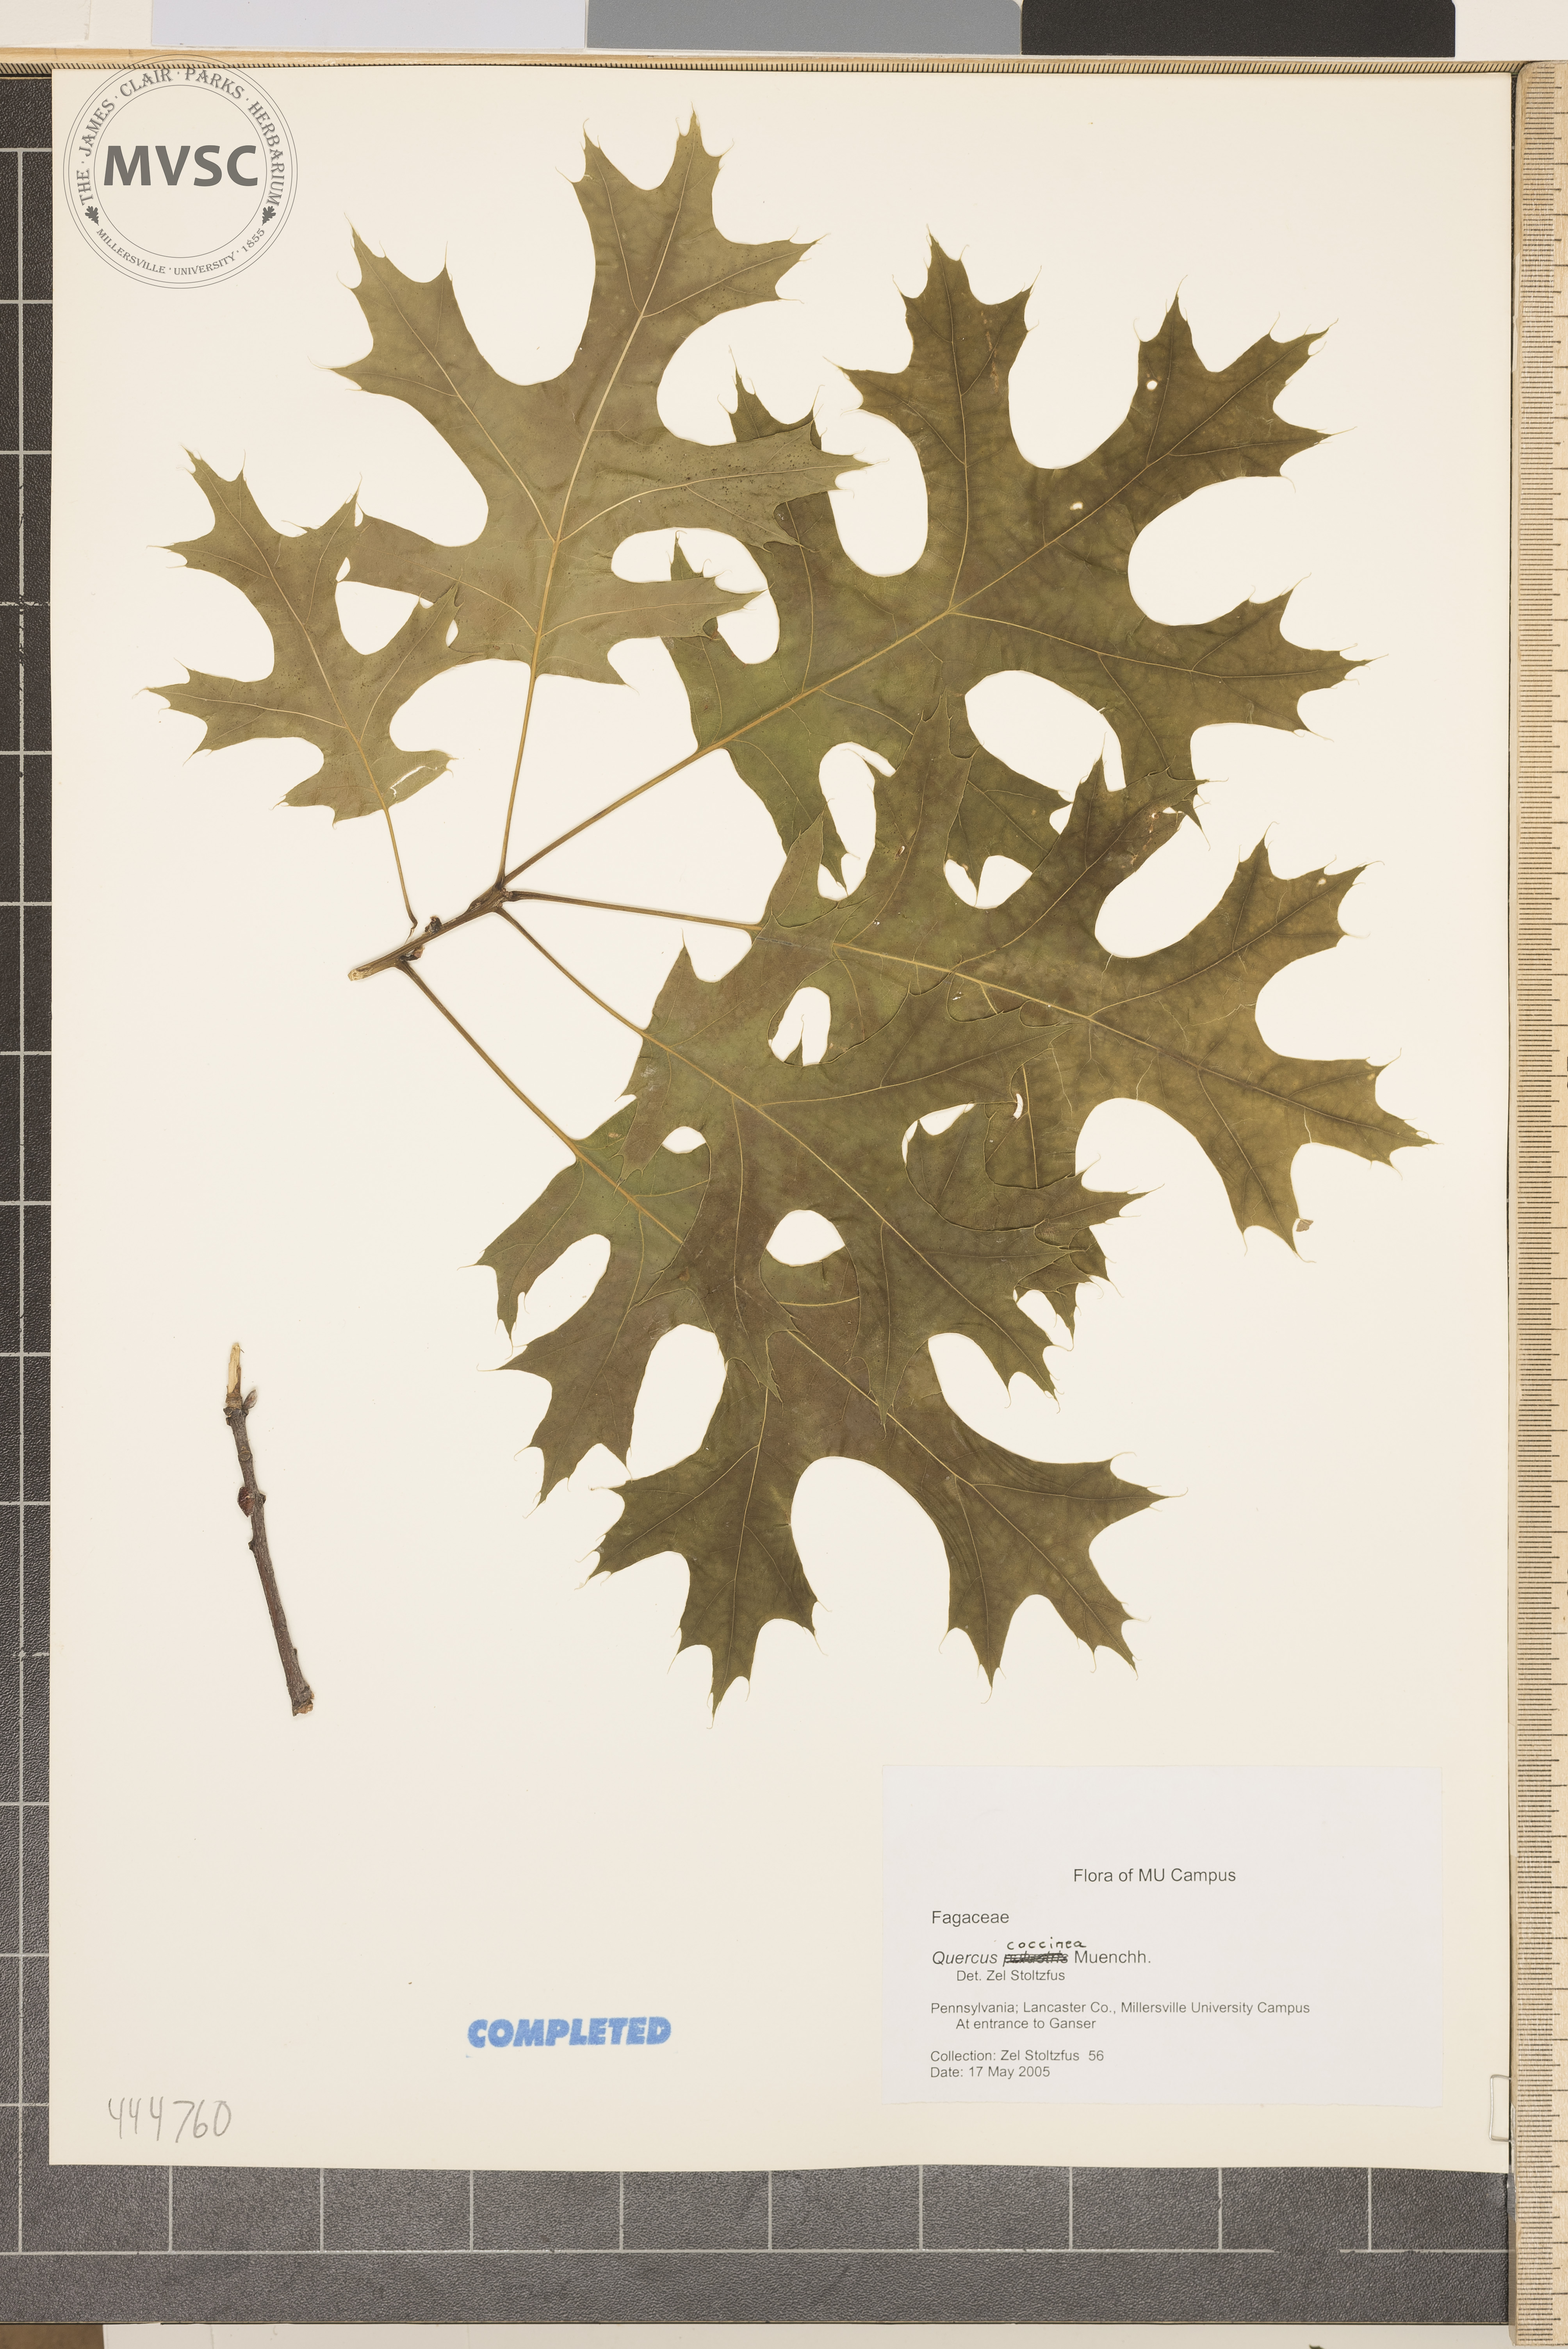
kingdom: Plantae
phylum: Tracheophyta
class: Magnoliopsida
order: Fagales
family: Fagaceae
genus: Quercus
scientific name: Quercus coccinea
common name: Scarlet oak
